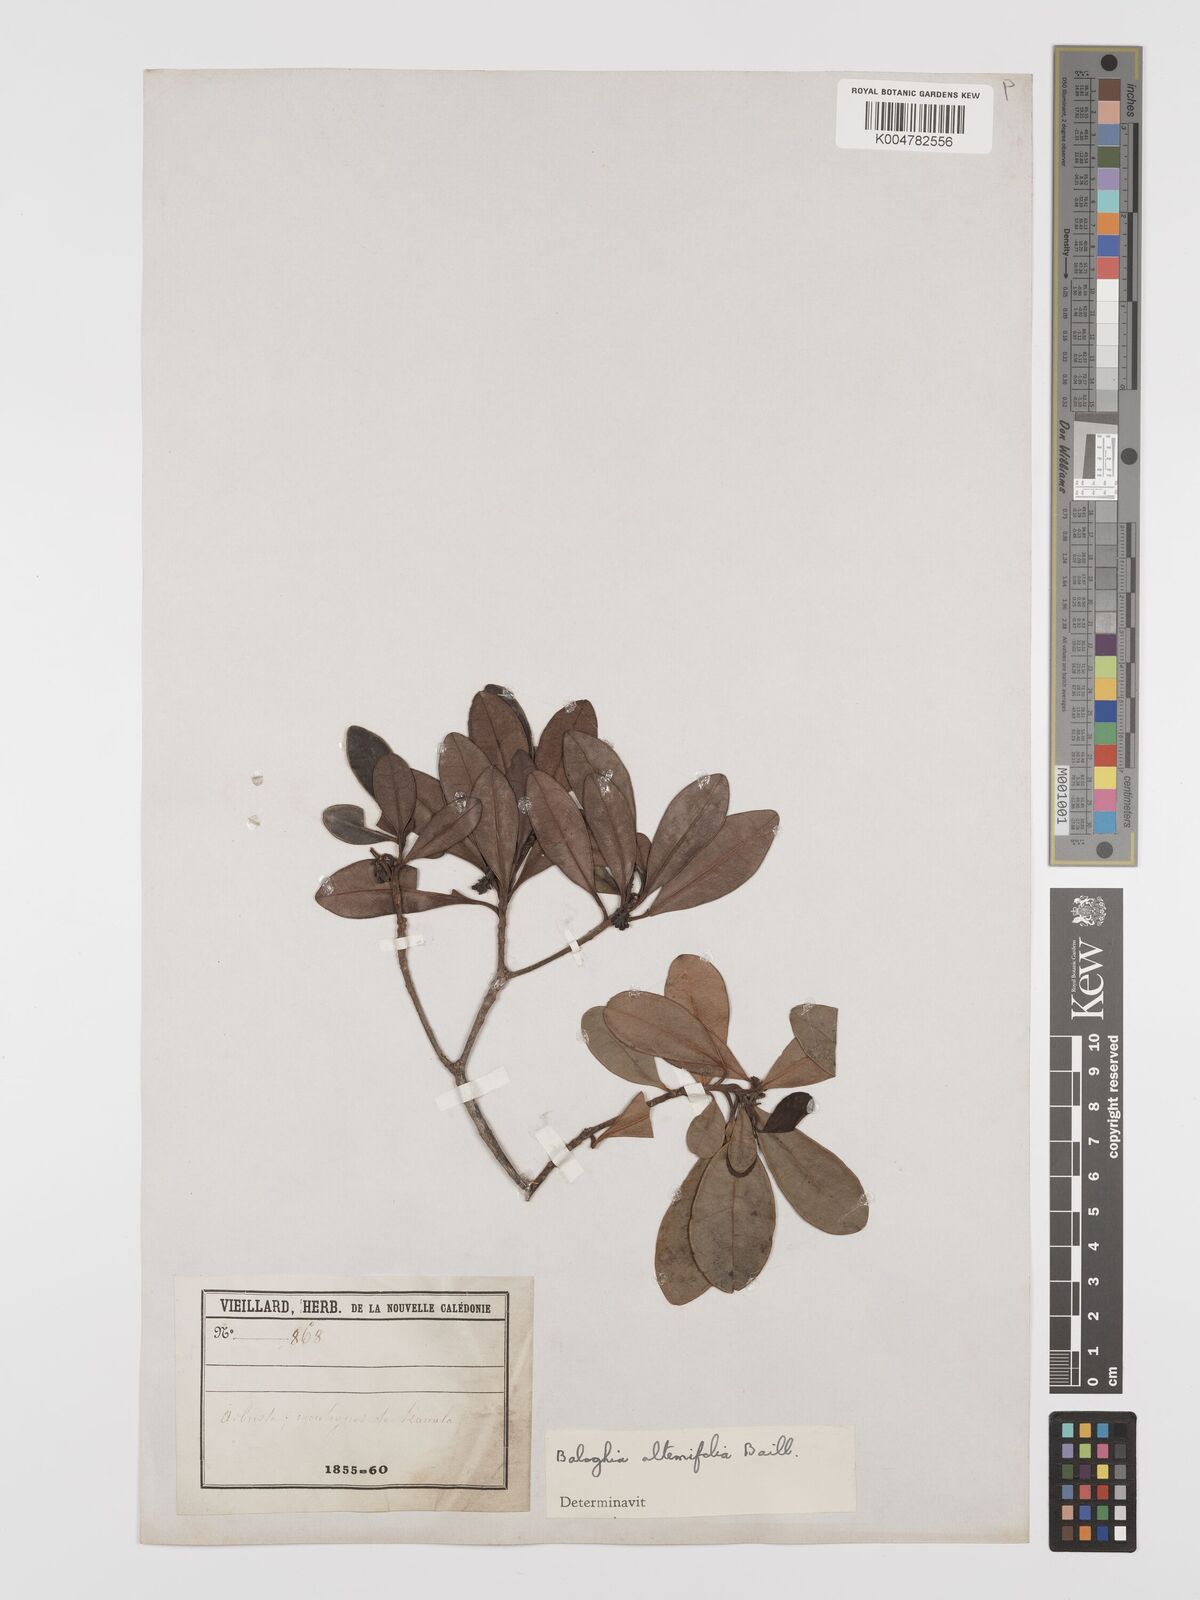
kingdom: Plantae
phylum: Tracheophyta
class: Magnoliopsida
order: Malpighiales
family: Euphorbiaceae
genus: Baloghia
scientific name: Baloghia alternifolia
